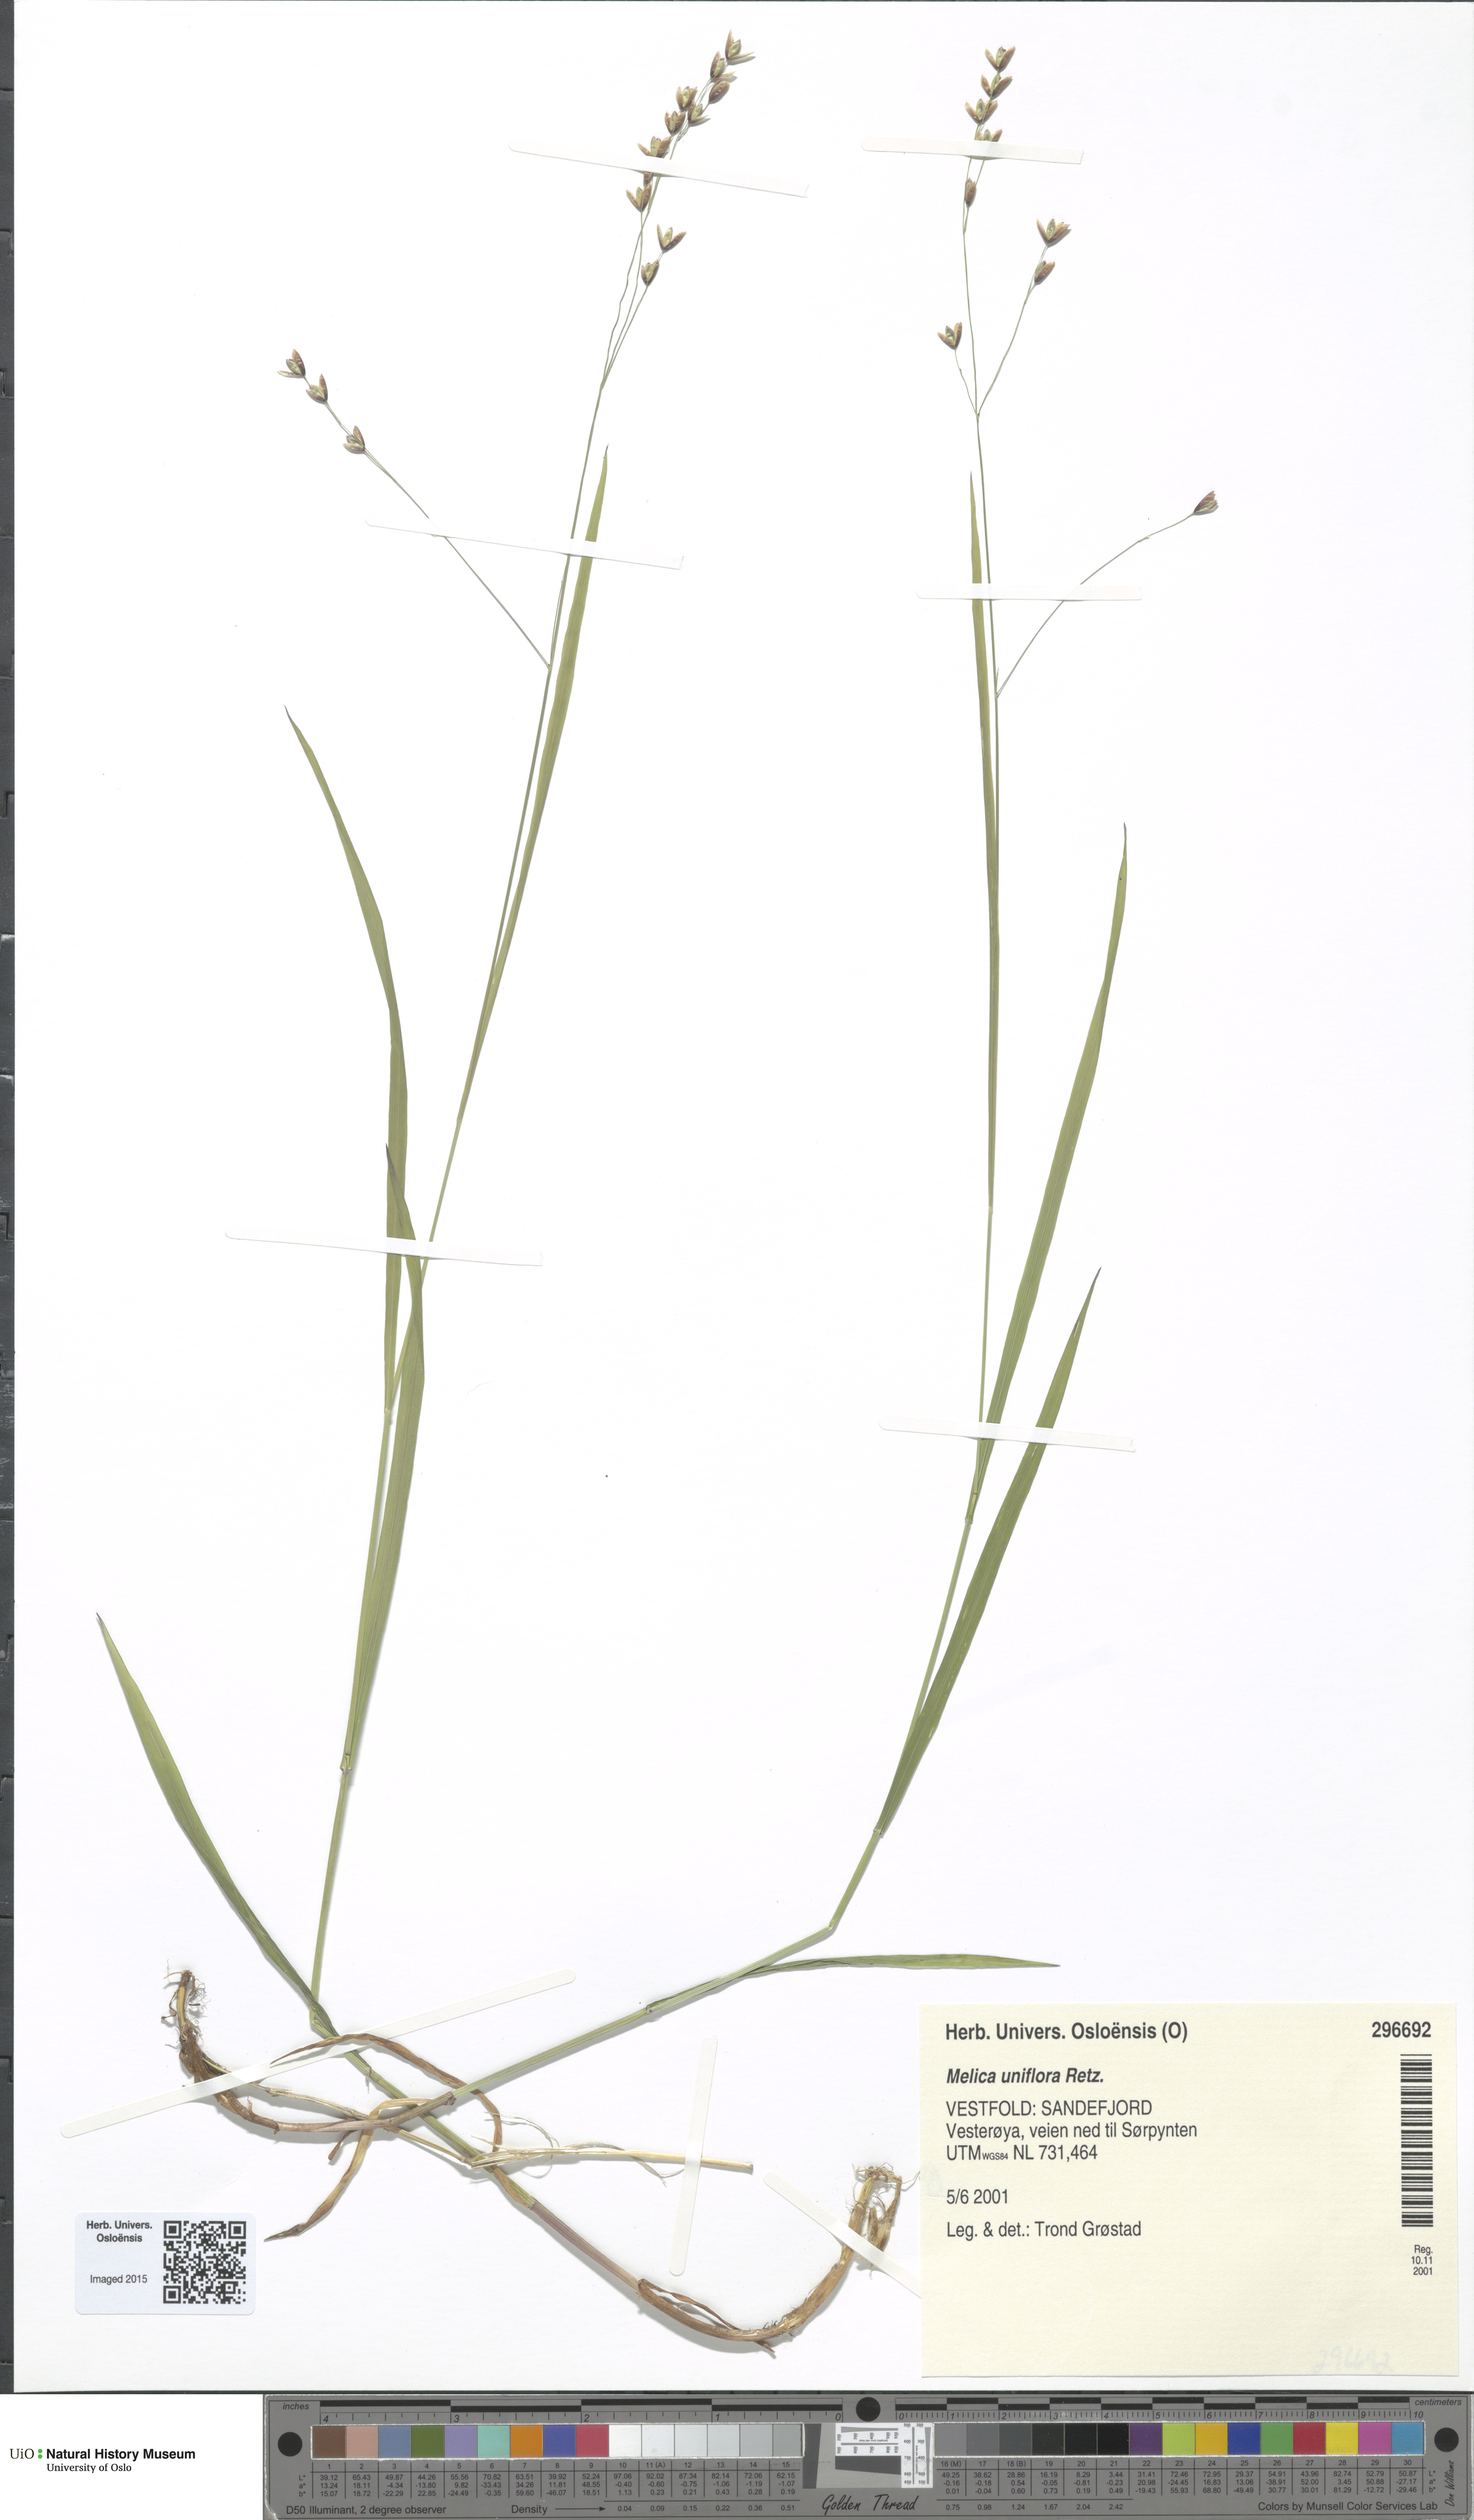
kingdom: Plantae
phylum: Tracheophyta
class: Liliopsida
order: Poales
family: Poaceae
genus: Melica
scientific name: Melica uniflora
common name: Wood melick
